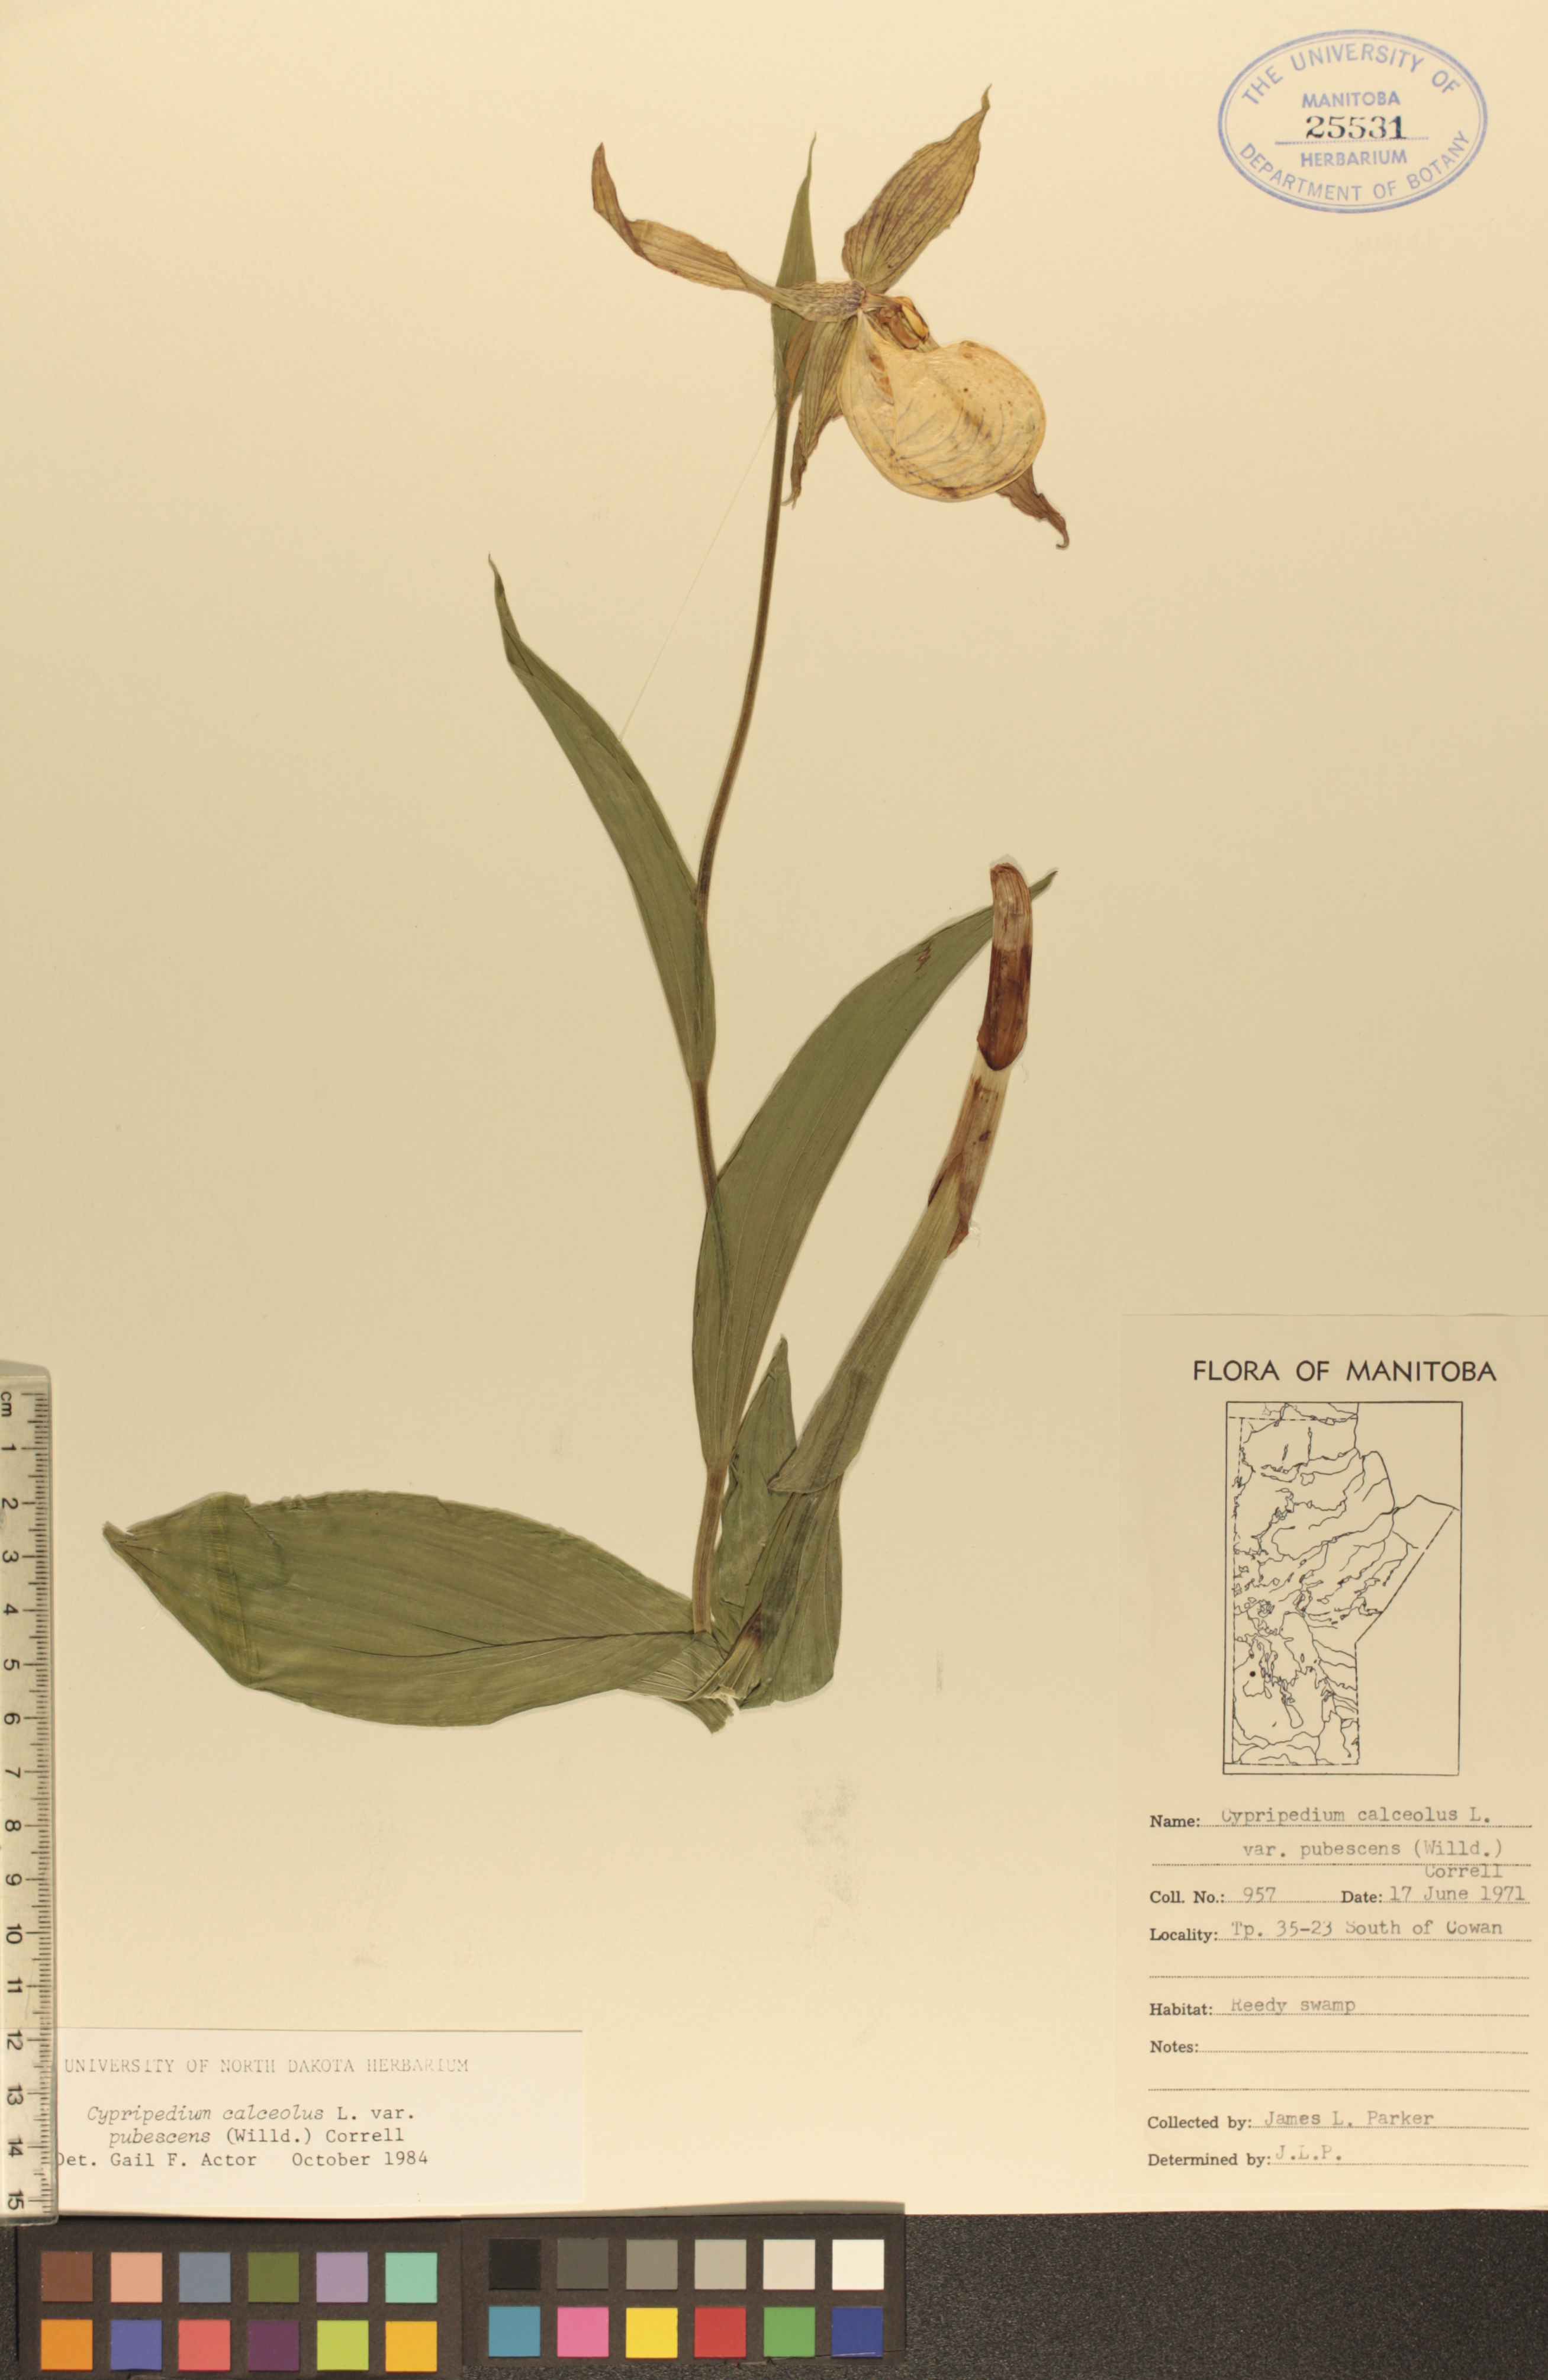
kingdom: Plantae
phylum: Tracheophyta
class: Liliopsida
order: Asparagales
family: Orchidaceae
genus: Cypripedium
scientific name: Cypripedium parviflorum
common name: American yellow lady's-slipper
